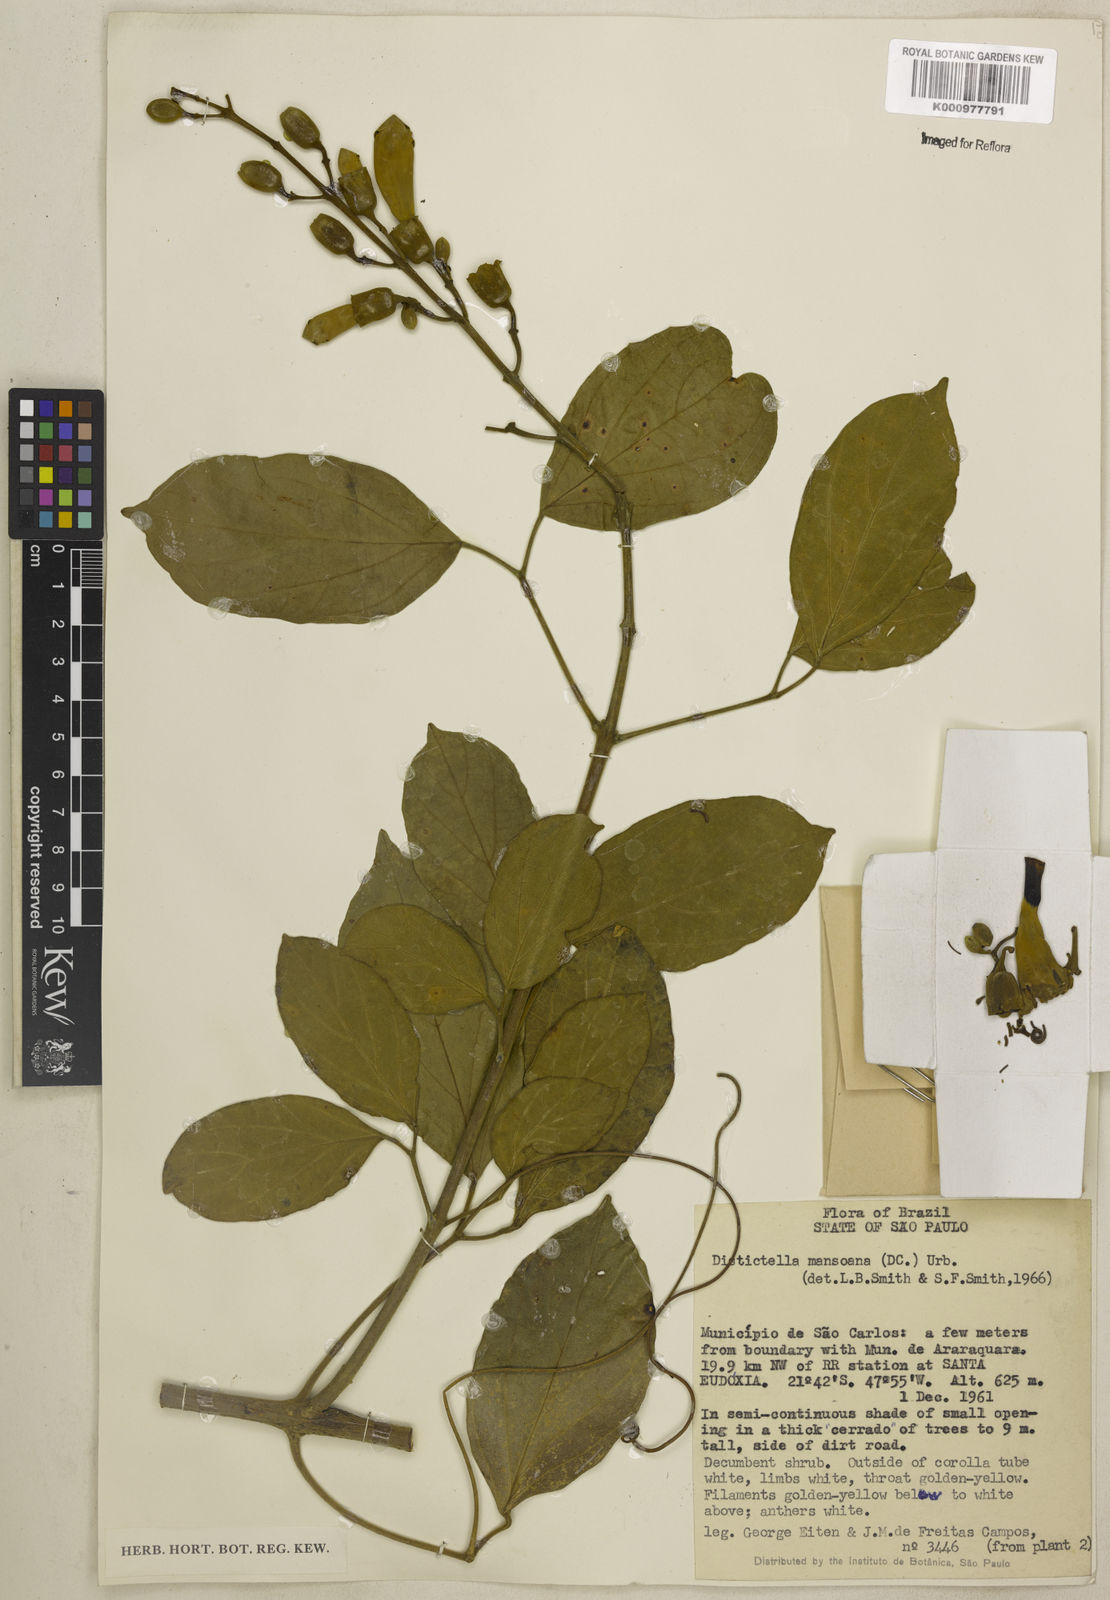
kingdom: Plantae
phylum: Tracheophyta
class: Magnoliopsida
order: Lamiales
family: Bignoniaceae
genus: Amphilophium
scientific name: Amphilophium mansoanum
